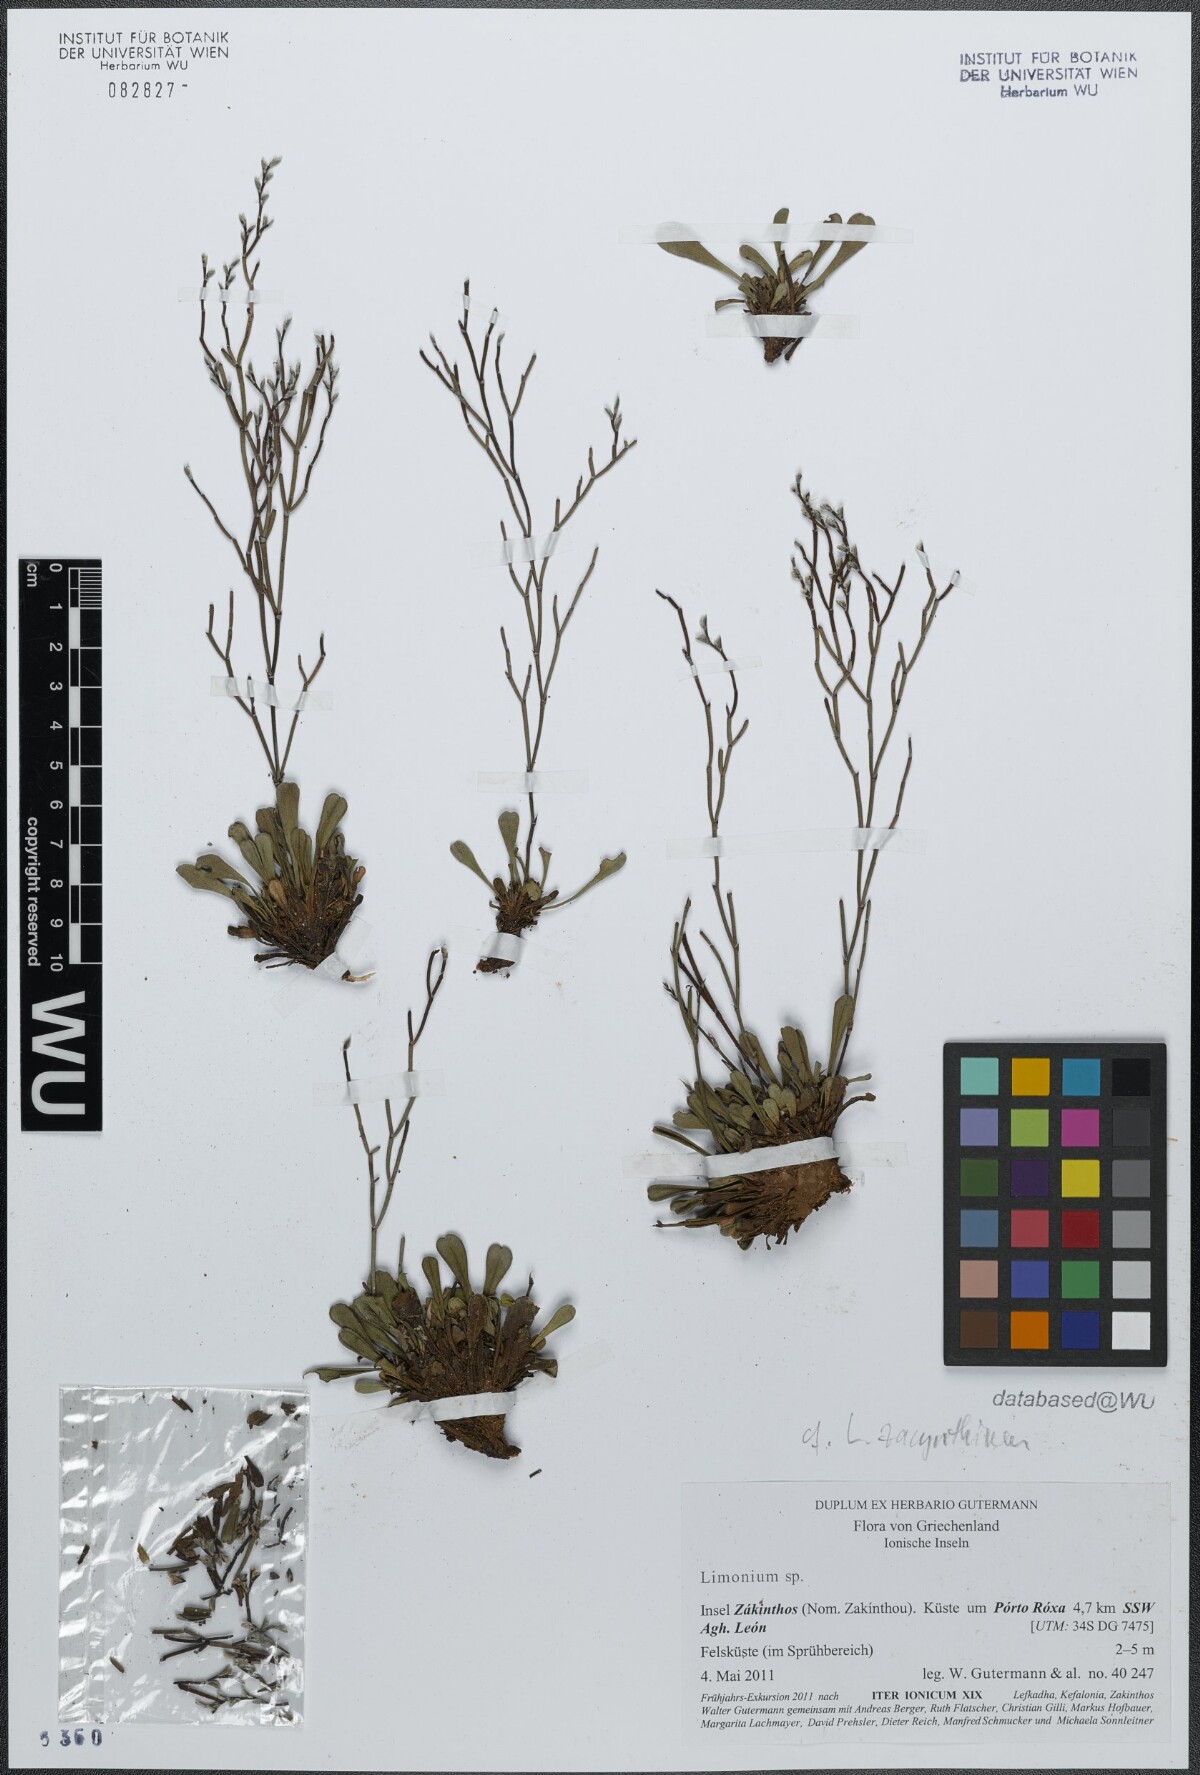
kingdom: Plantae
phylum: Tracheophyta
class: Magnoliopsida
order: Caryophyllales
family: Plumbaginaceae
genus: Limonium
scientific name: Limonium zacynthium
